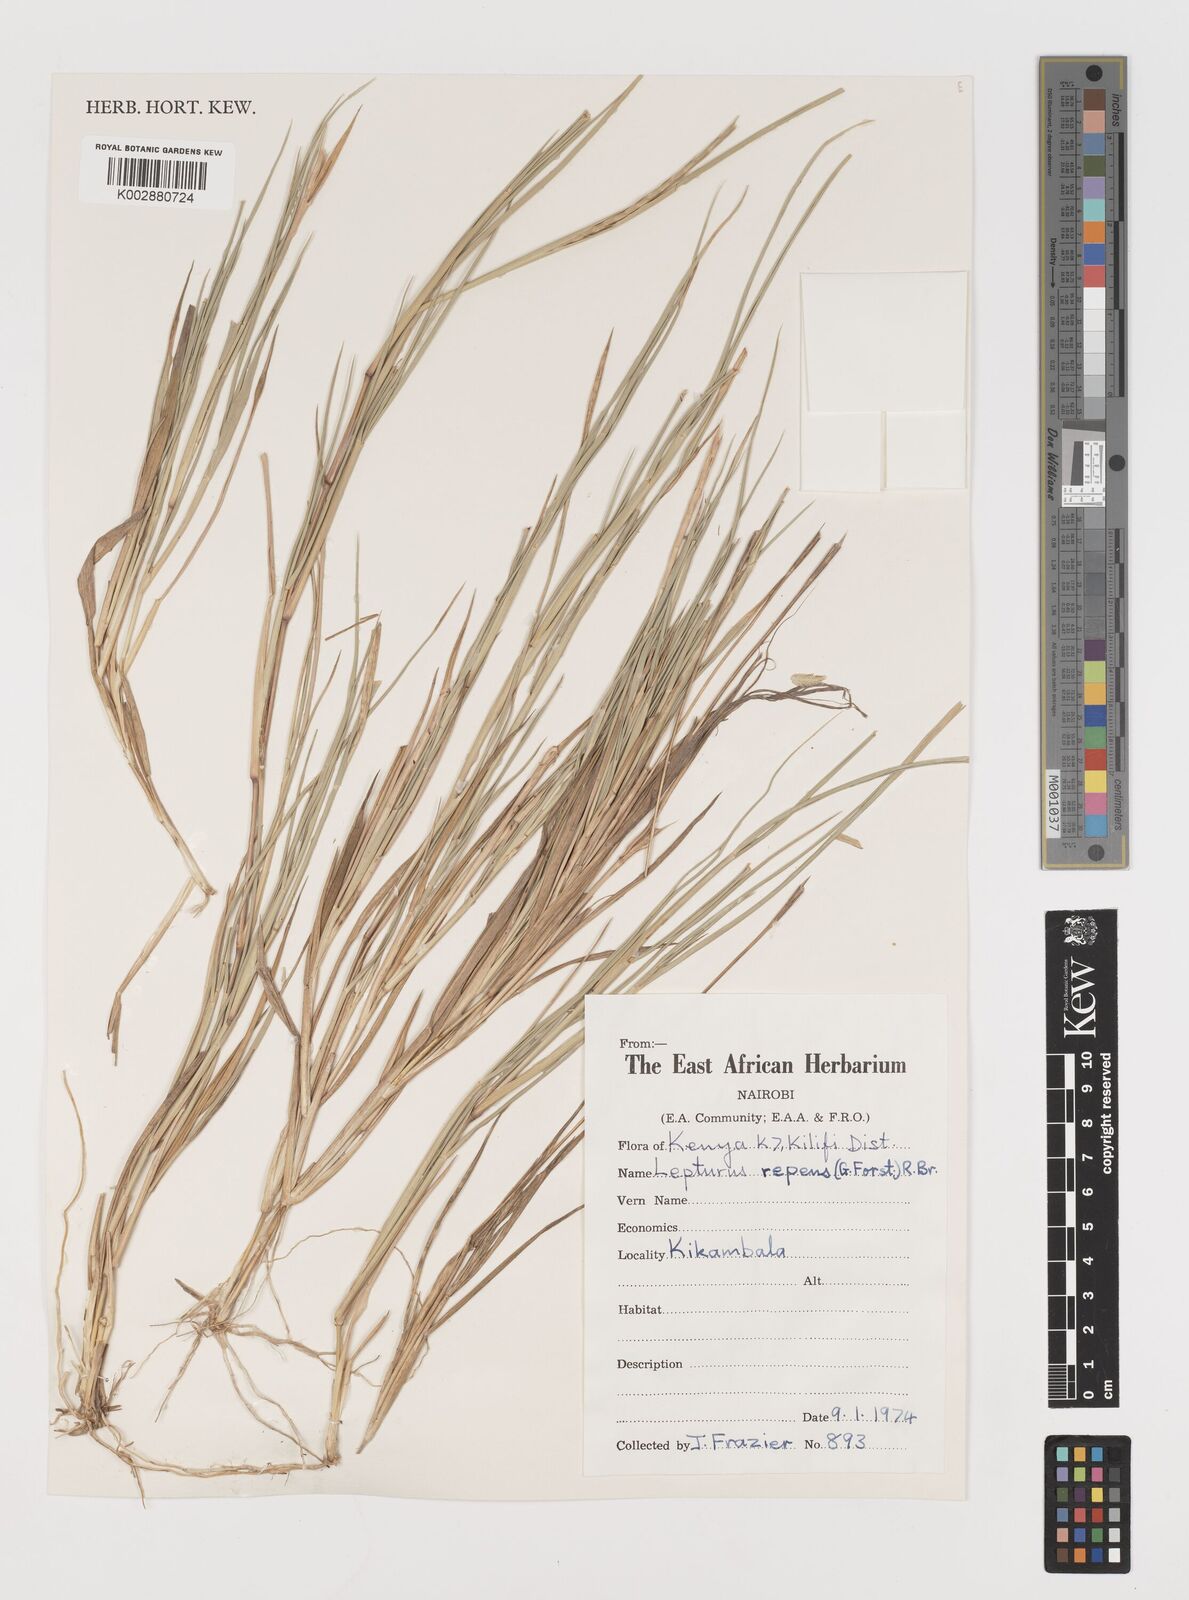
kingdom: Plantae
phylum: Tracheophyta
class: Liliopsida
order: Poales
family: Poaceae
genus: Lepturus
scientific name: Lepturus repens
